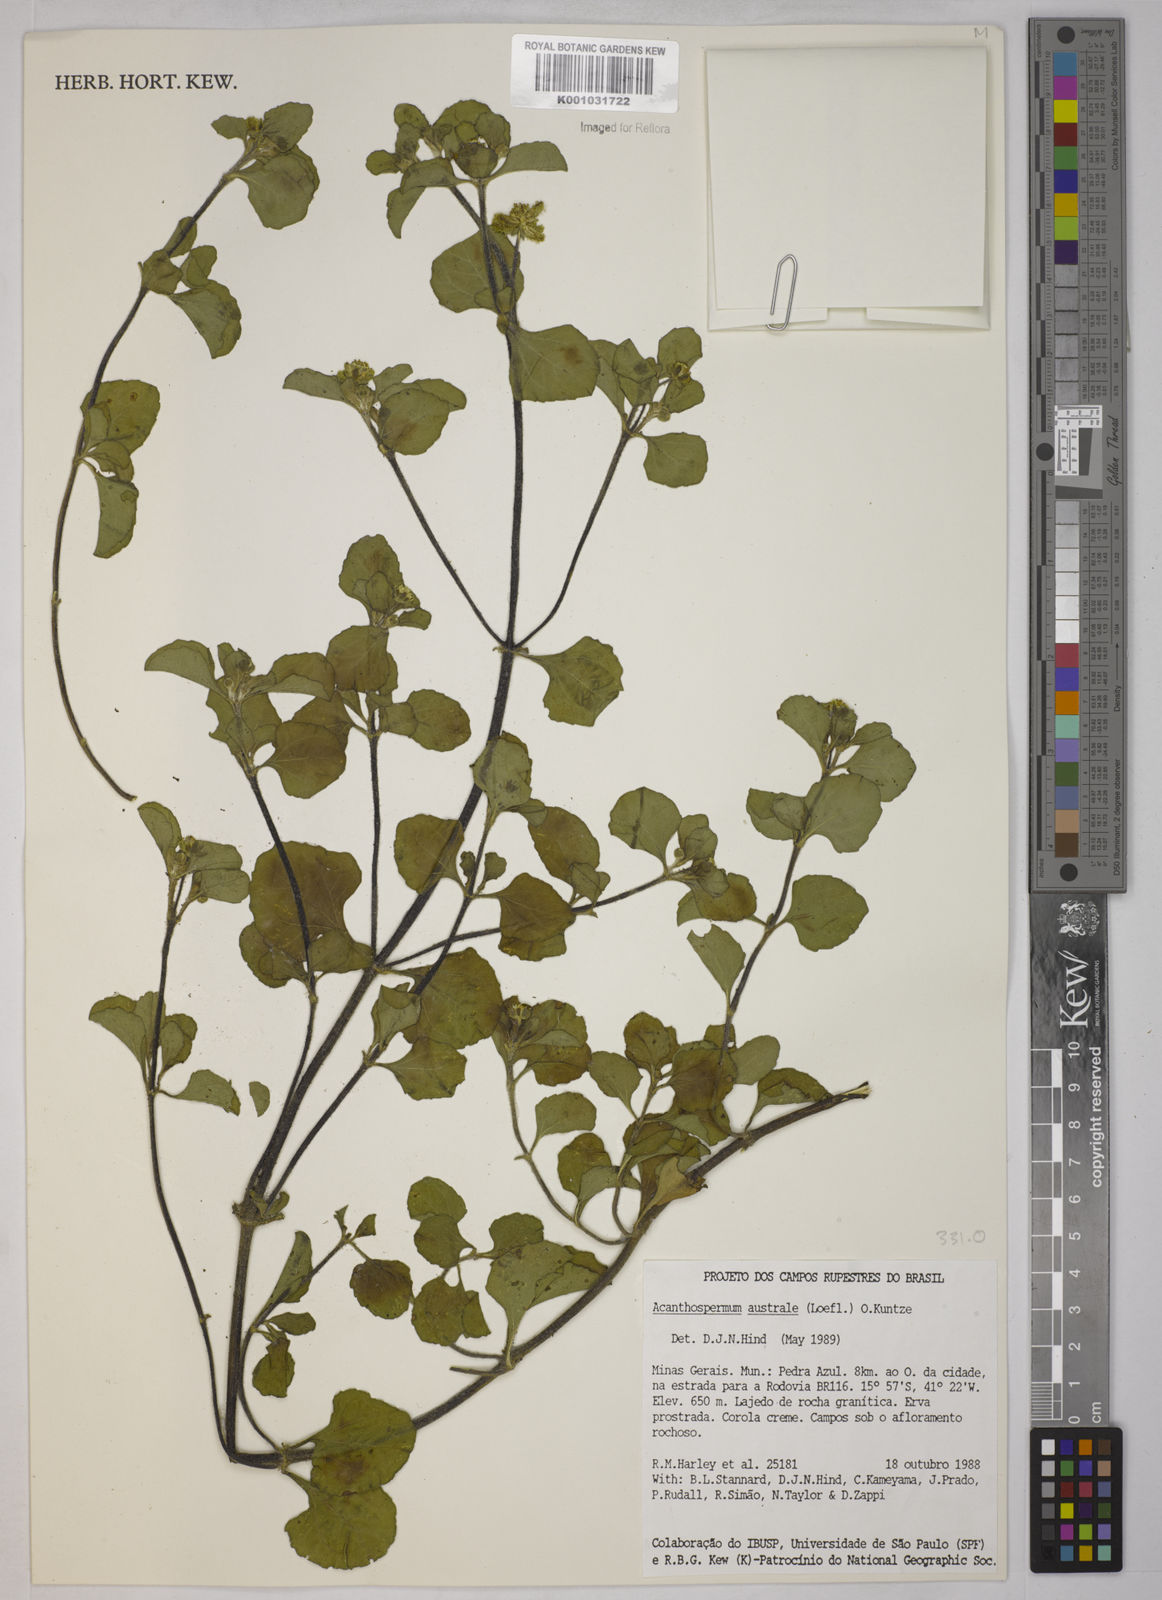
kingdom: Plantae
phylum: Tracheophyta
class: Magnoliopsida
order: Asterales
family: Asteraceae
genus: Acanthospermum
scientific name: Acanthospermum australe
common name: Paraguayan starbur
